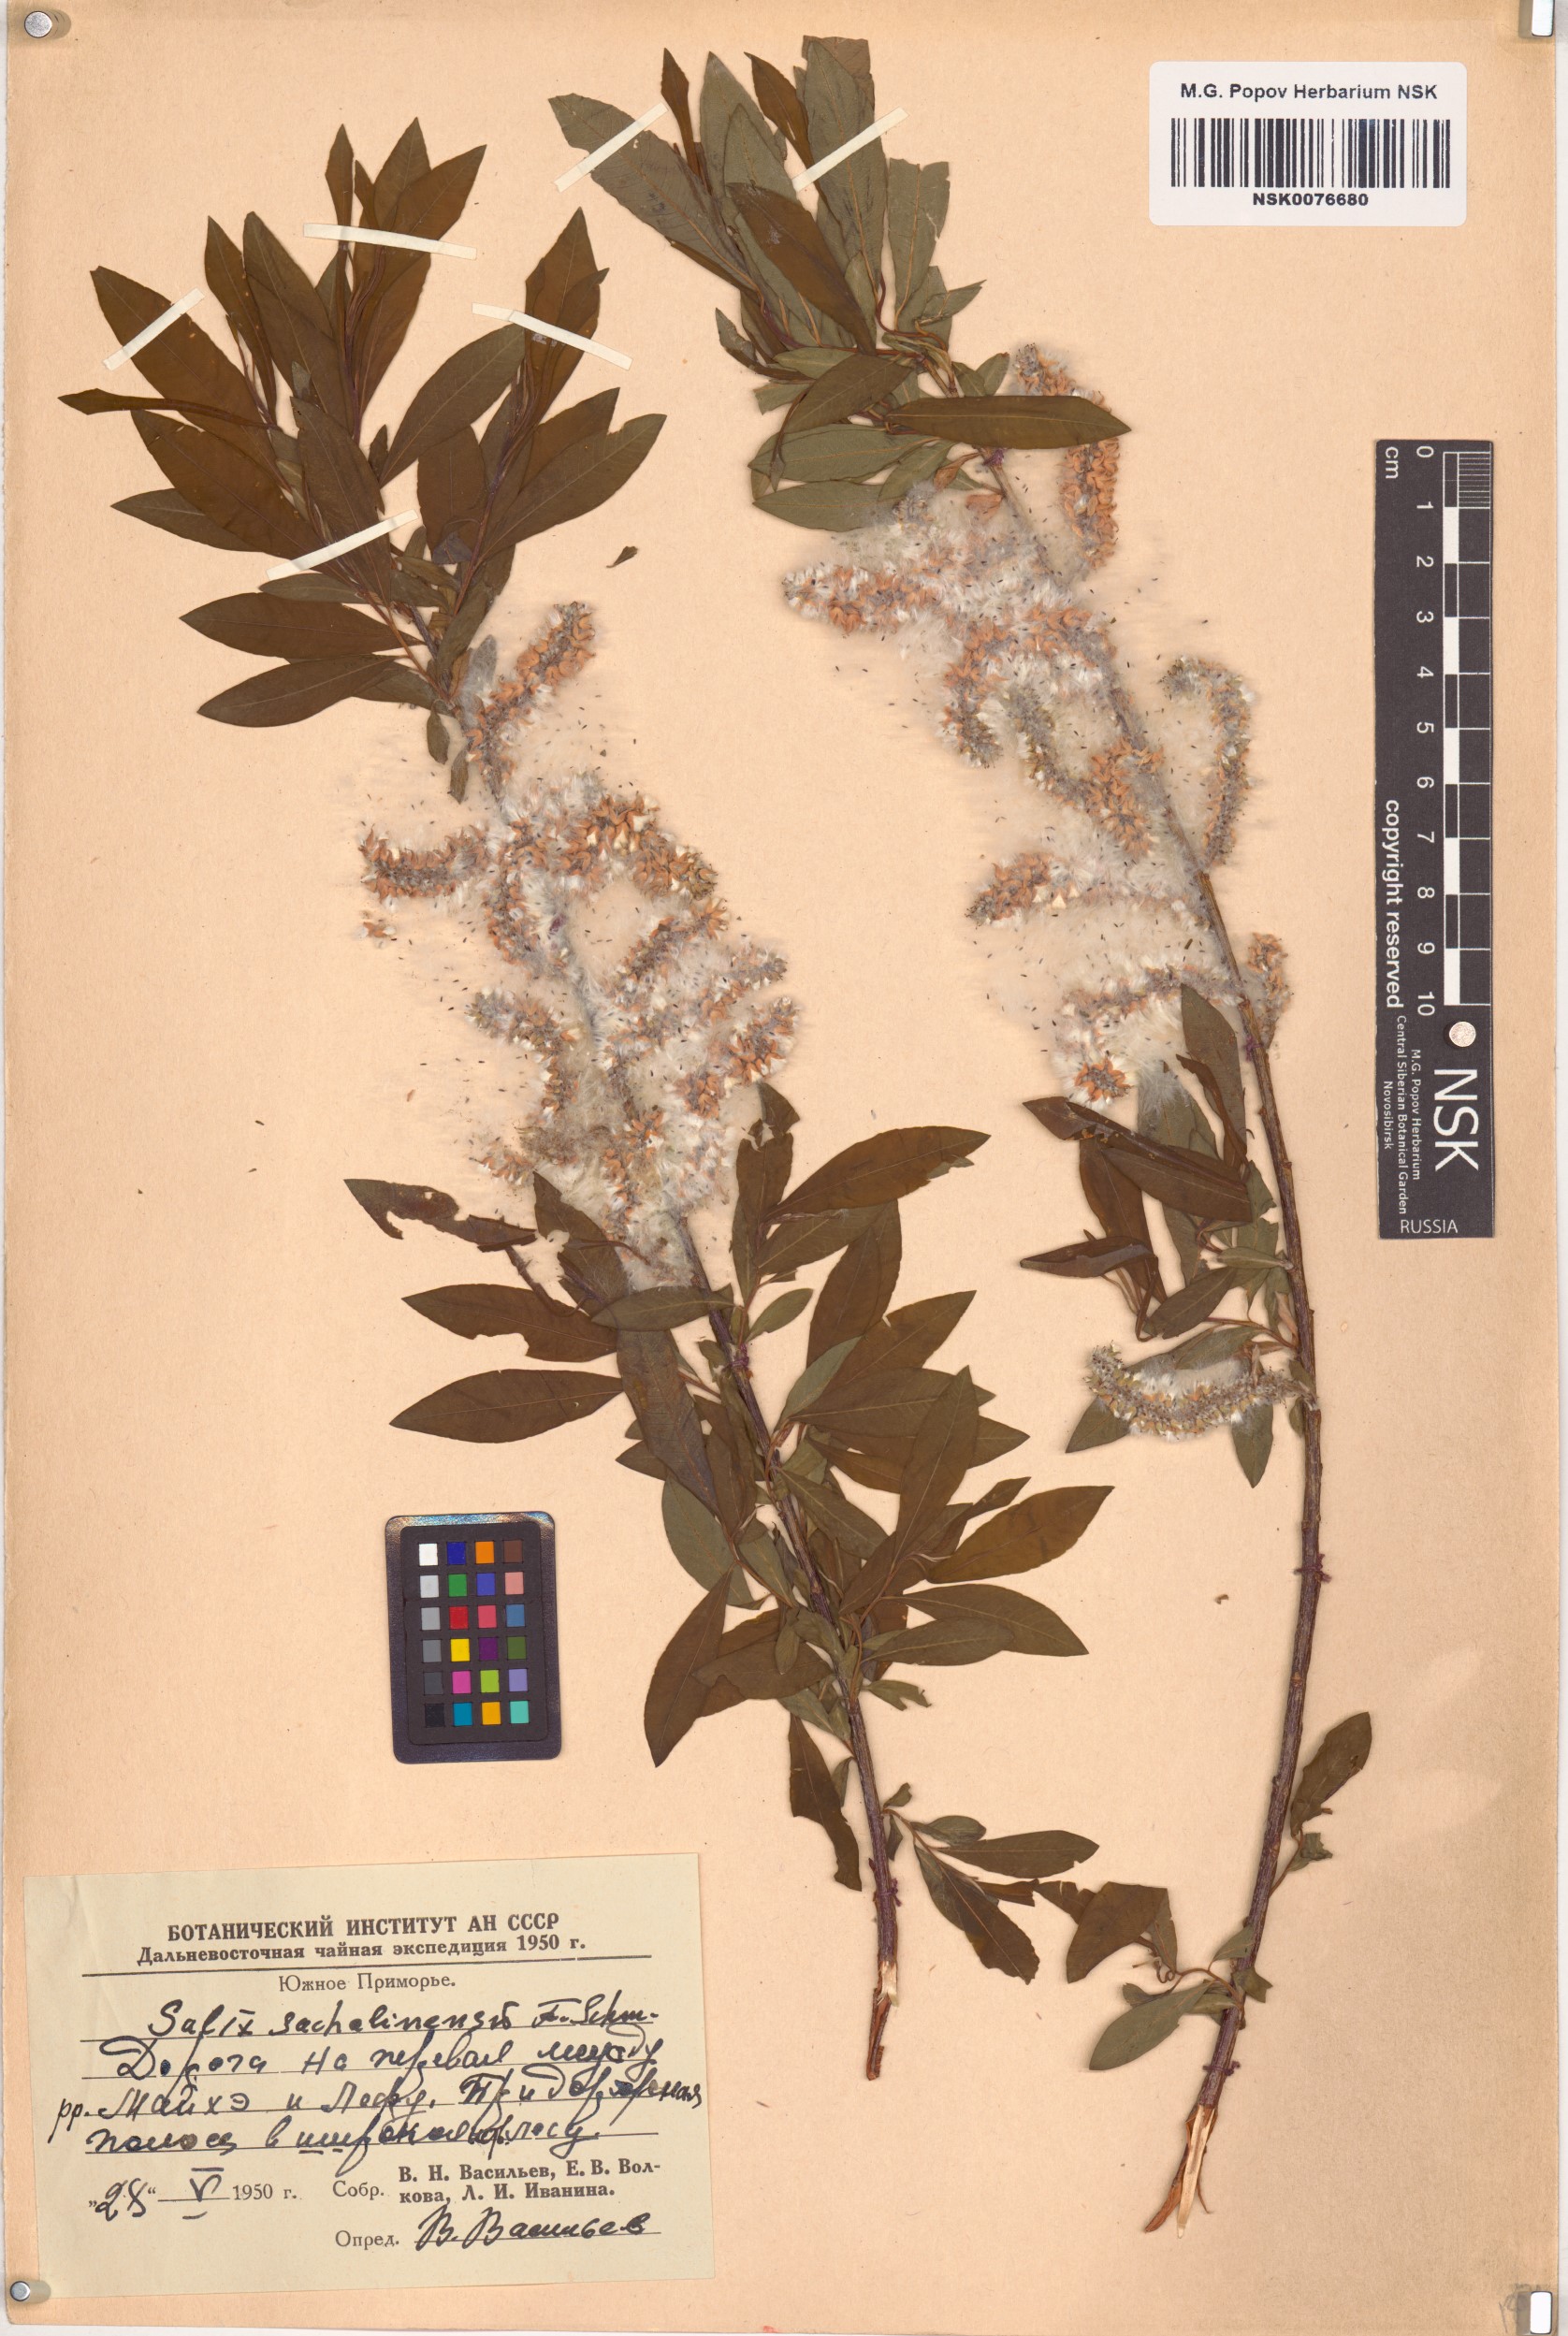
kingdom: Plantae
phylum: Tracheophyta
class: Magnoliopsida
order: Malpighiales
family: Salicaceae
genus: Salix
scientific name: Salix udensis
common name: Sachalin willow
